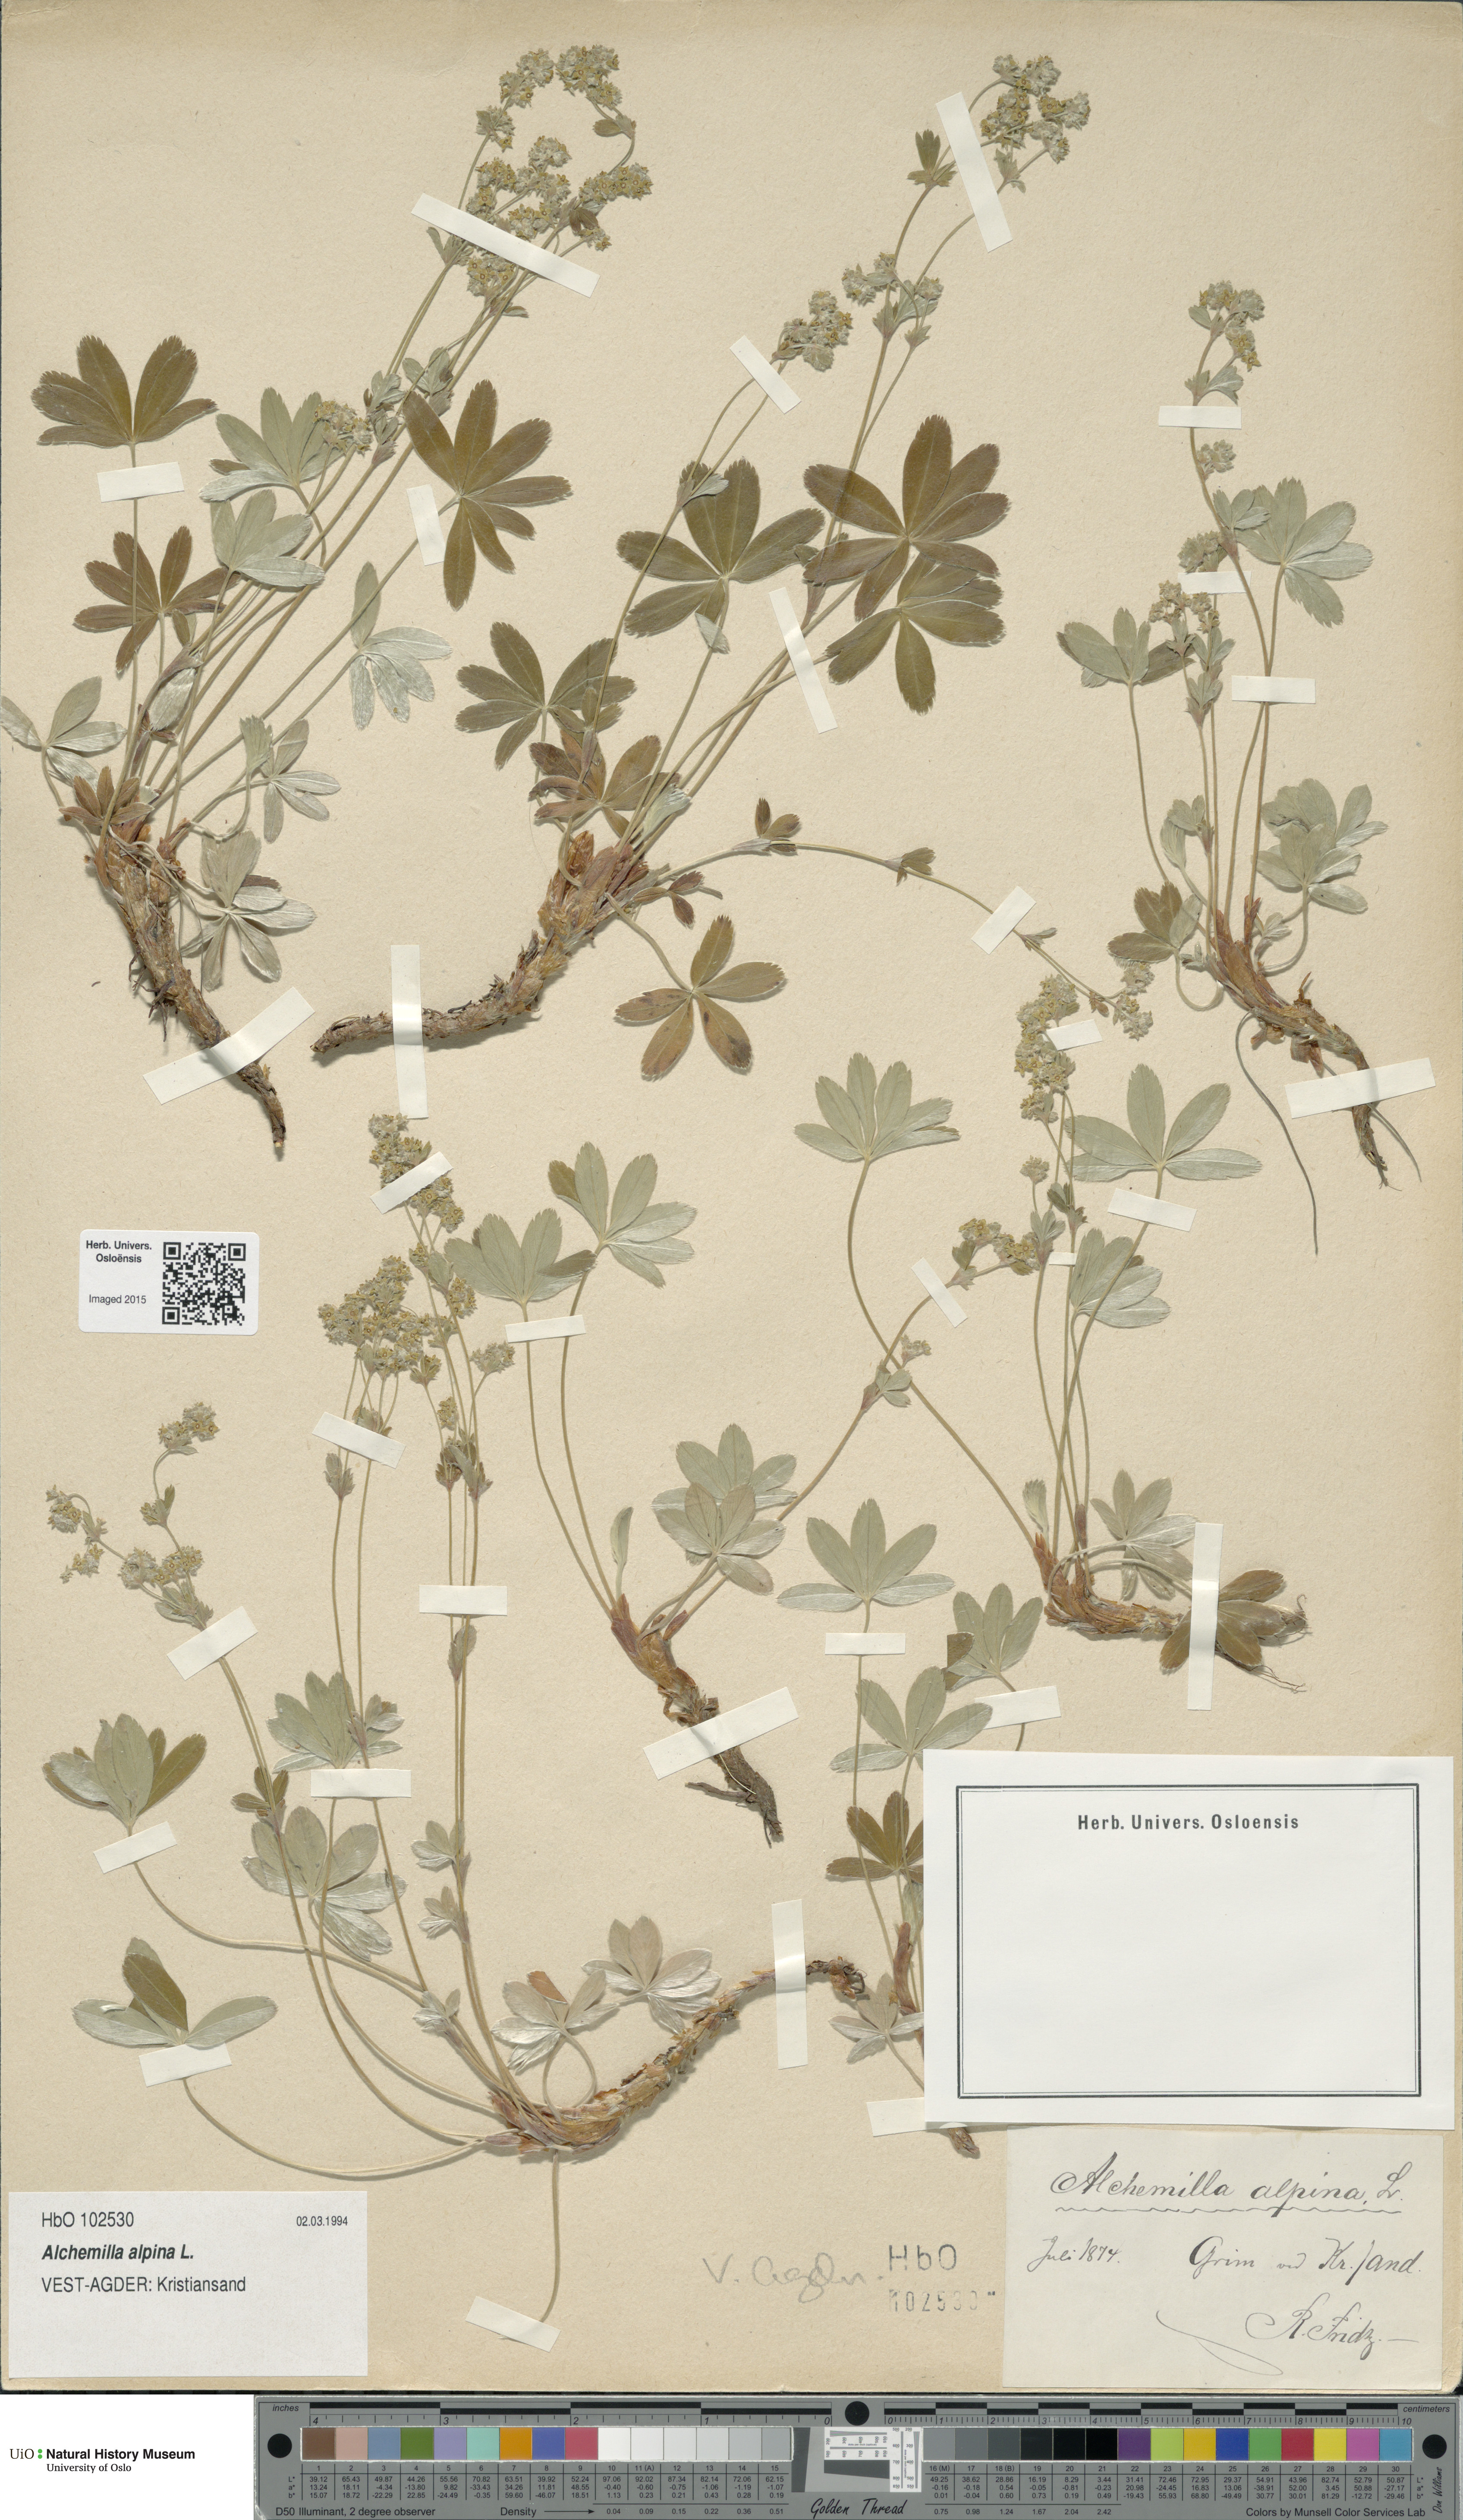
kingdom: Plantae
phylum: Tracheophyta
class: Magnoliopsida
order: Rosales
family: Rosaceae
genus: Alchemilla
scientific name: Alchemilla alpina
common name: Alpine lady's-mantle
